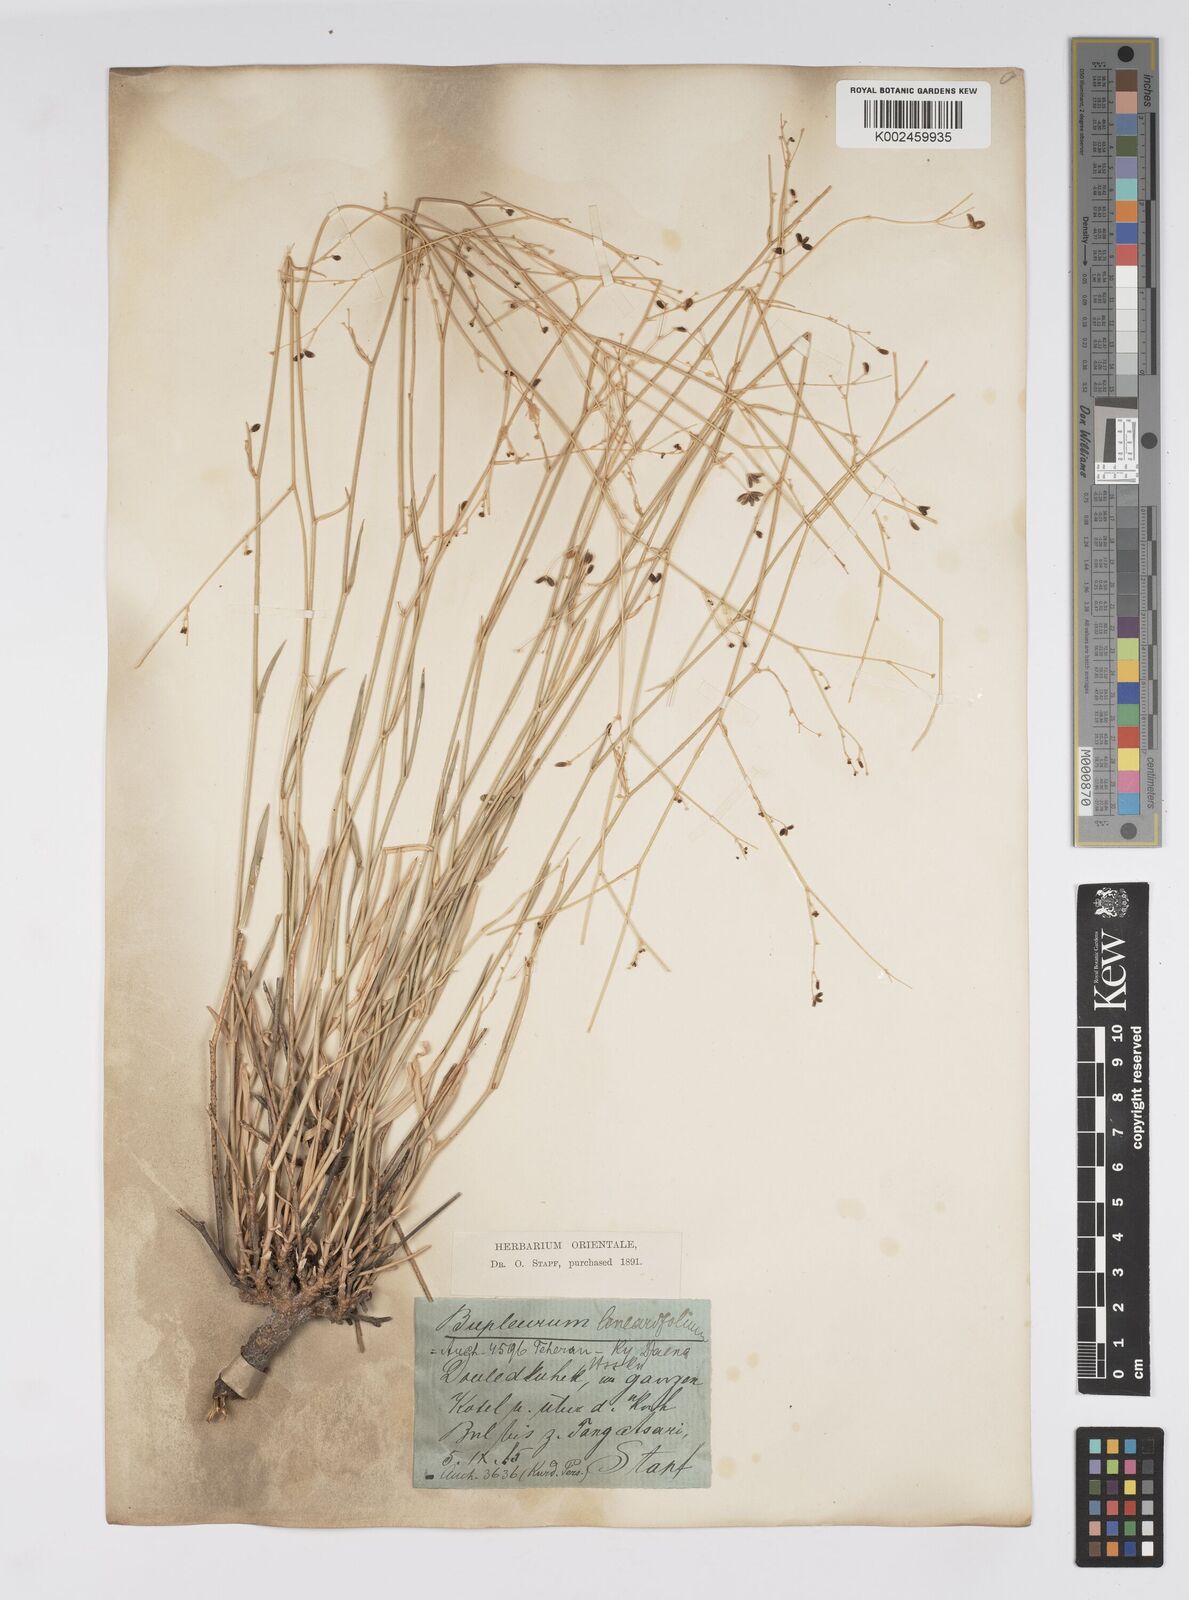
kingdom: Plantae
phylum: Tracheophyta
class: Magnoliopsida
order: Apiales
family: Apiaceae
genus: Bupleurum
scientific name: Bupleurum falcatum
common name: Sickle-leaved hare's-ear
